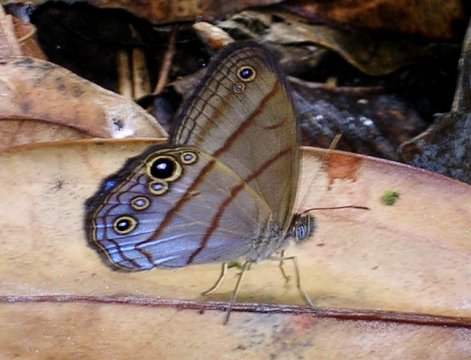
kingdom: Animalia
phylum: Arthropoda
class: Insecta
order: Lepidoptera
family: Nymphalidae
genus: Chloreuptychia
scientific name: Chloreuptychia arnaca
